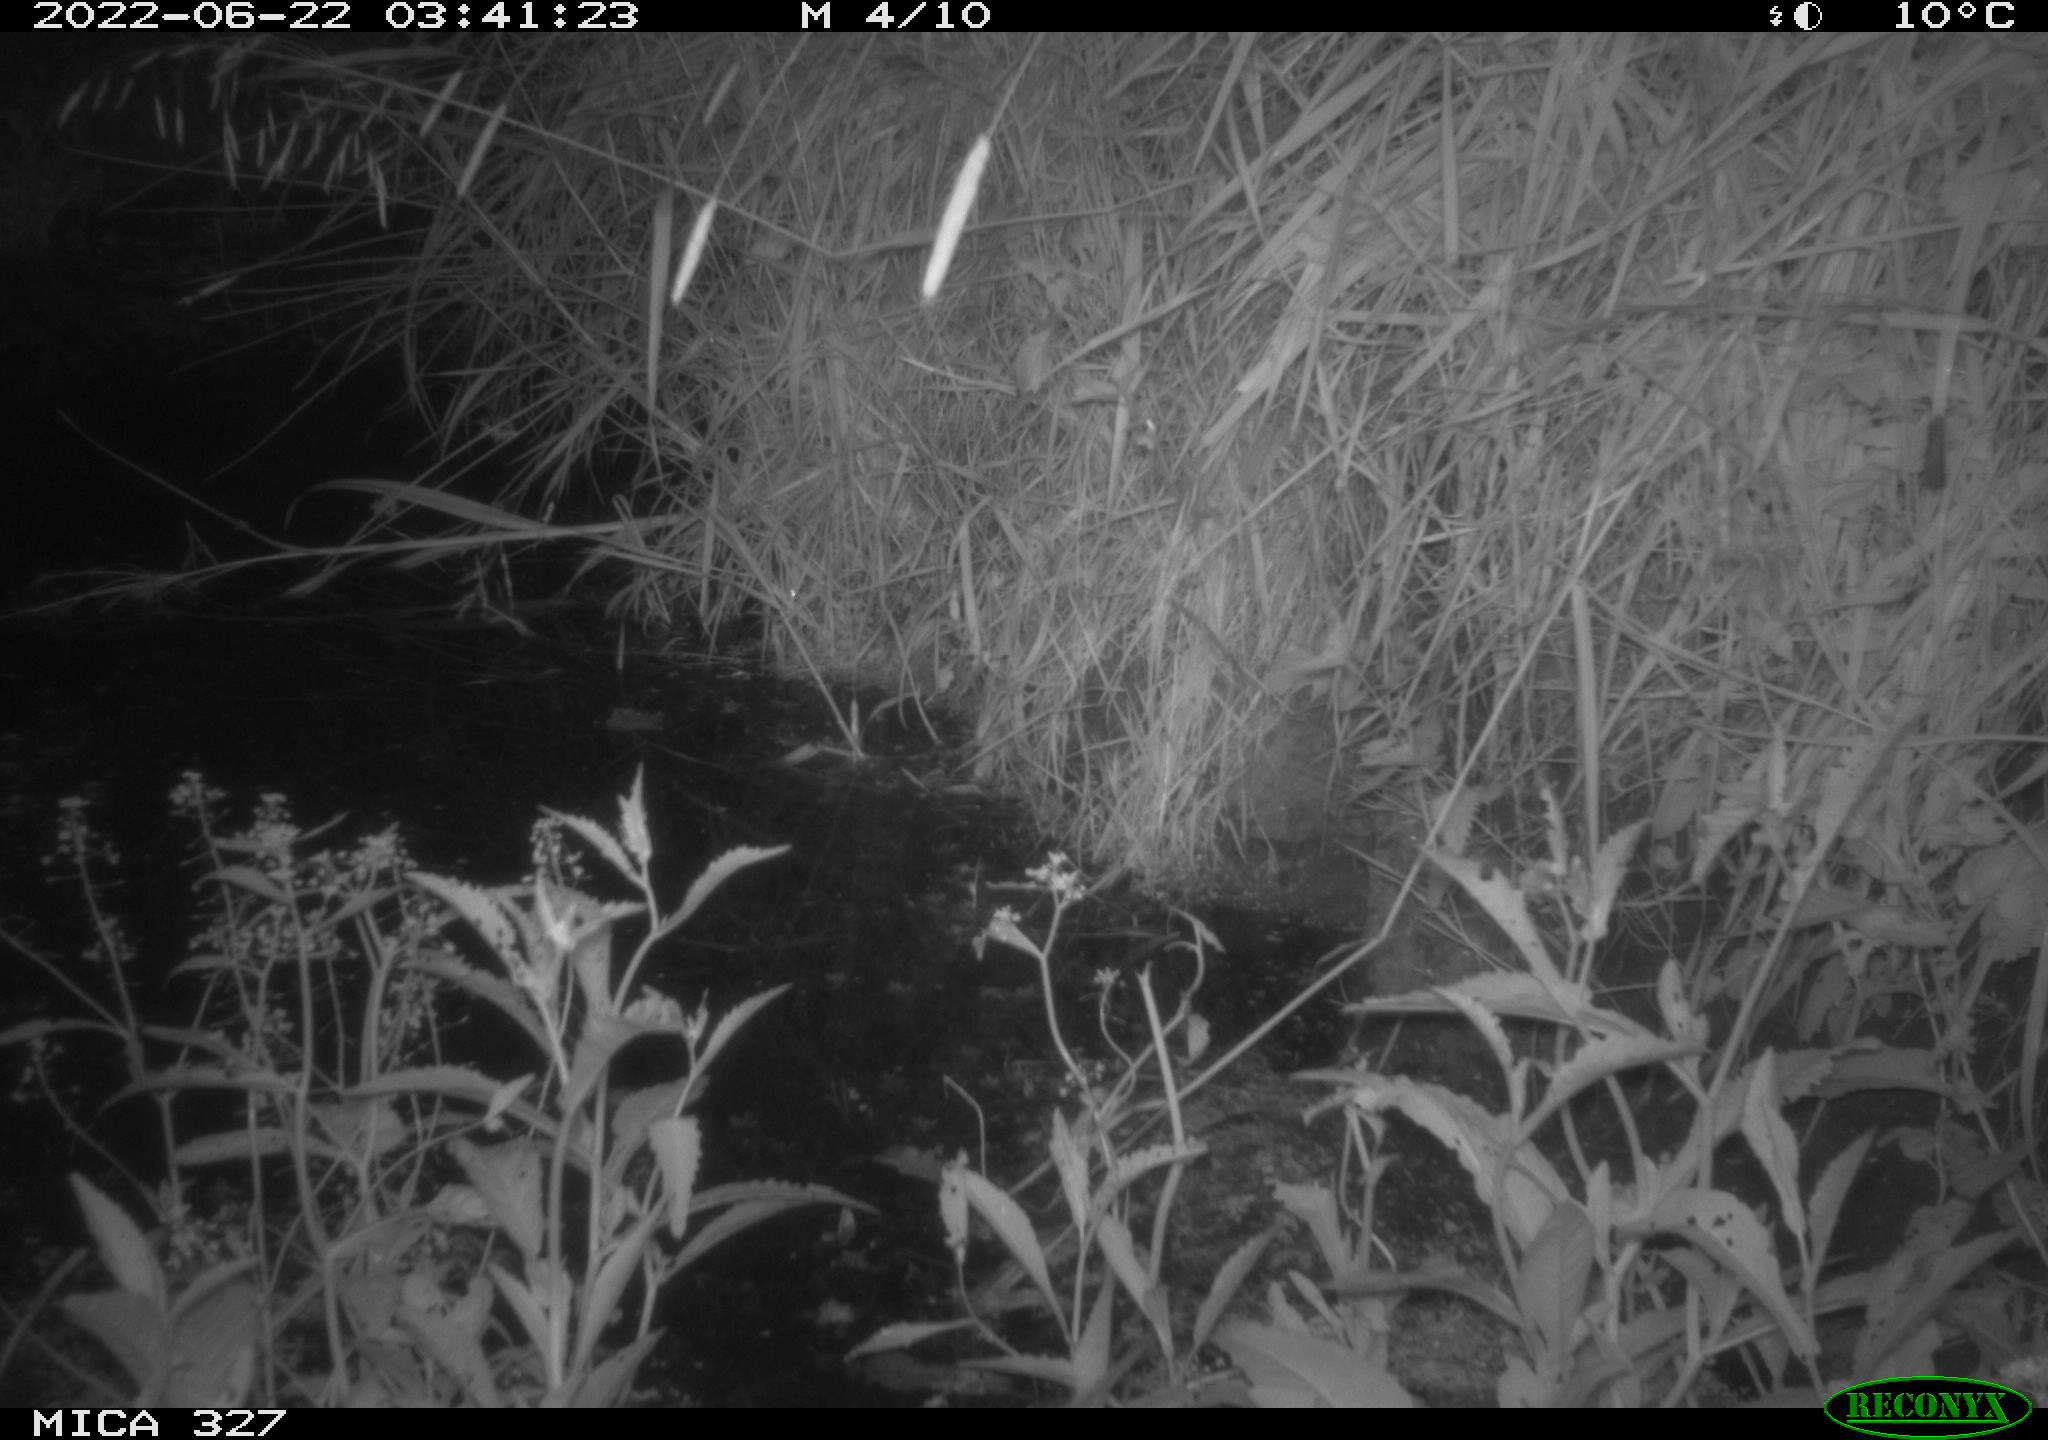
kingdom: Animalia
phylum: Chordata
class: Mammalia
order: Rodentia
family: Muridae
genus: Rattus
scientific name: Rattus norvegicus
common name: Brown rat
